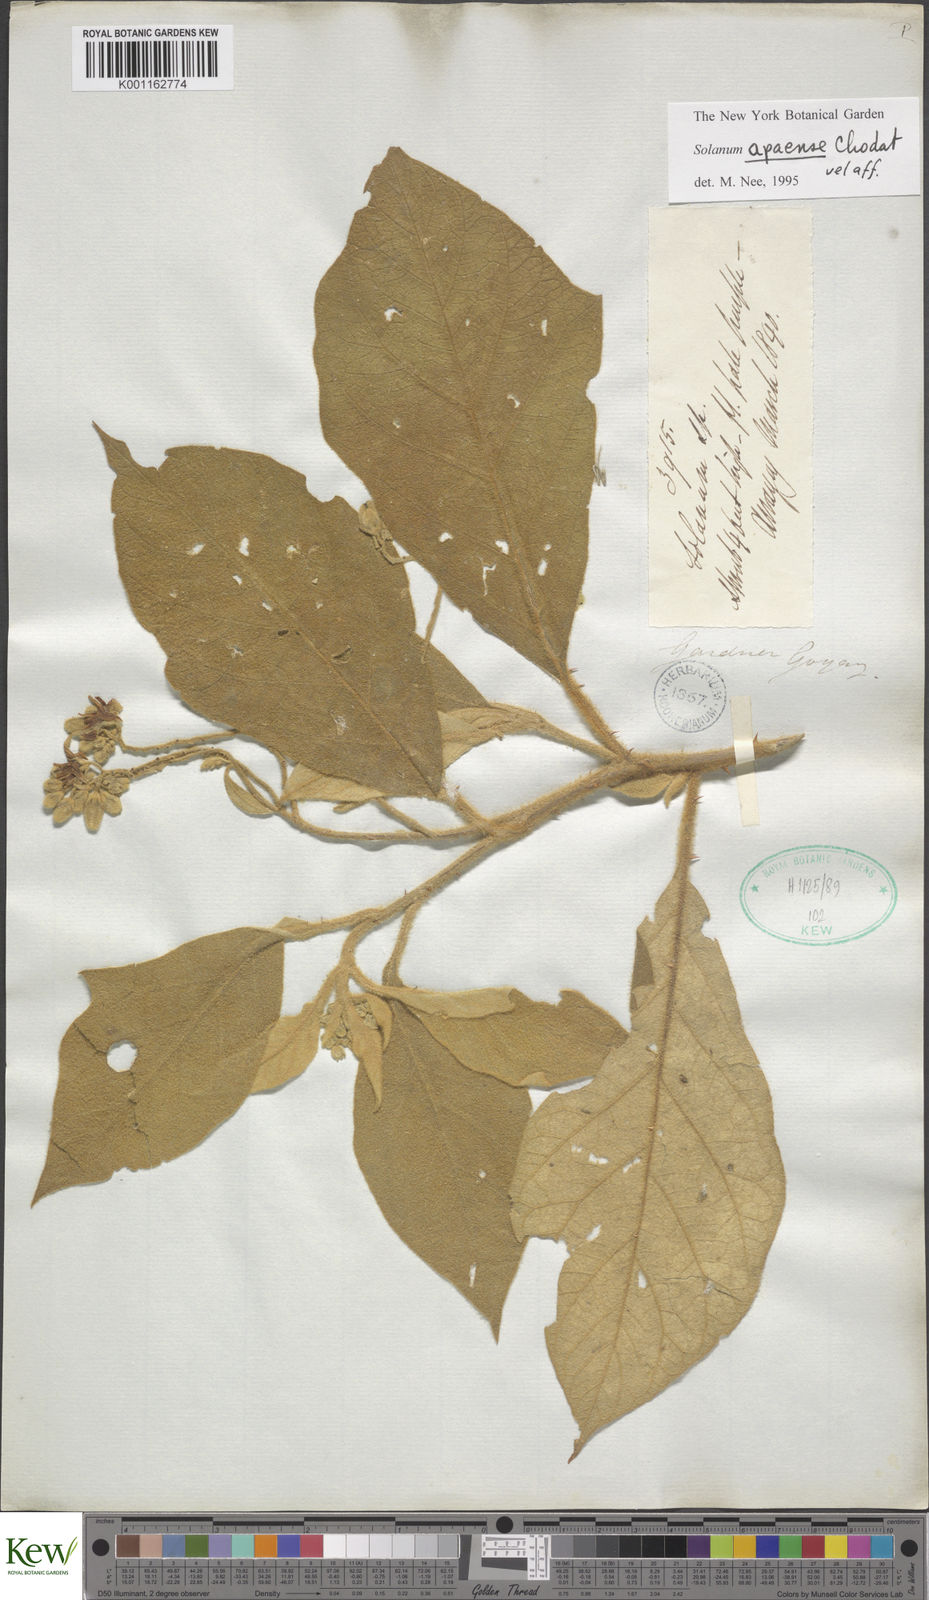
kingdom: Plantae
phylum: Tracheophyta
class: Magnoliopsida
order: Solanales
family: Solanaceae
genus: Solanum
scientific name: Solanum rhytidoandrum
